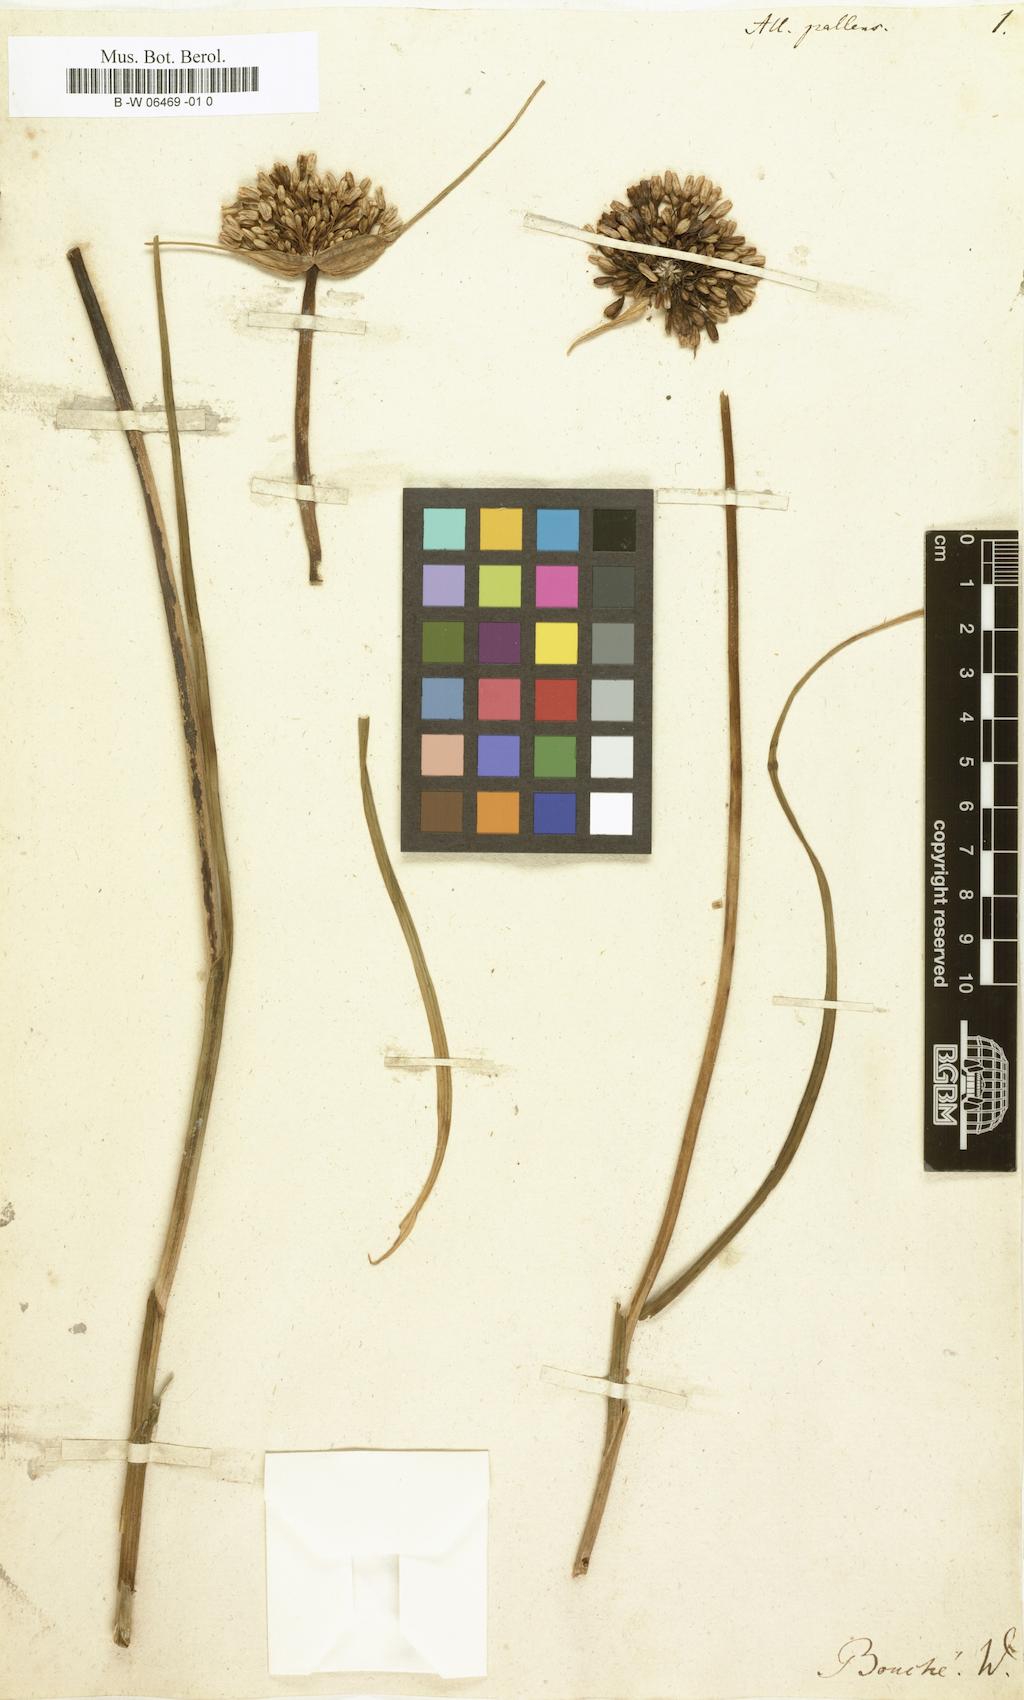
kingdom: Plantae
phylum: Tracheophyta
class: Liliopsida
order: Asparagales
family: Amaryllidaceae
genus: Allium
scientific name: Allium pallens
